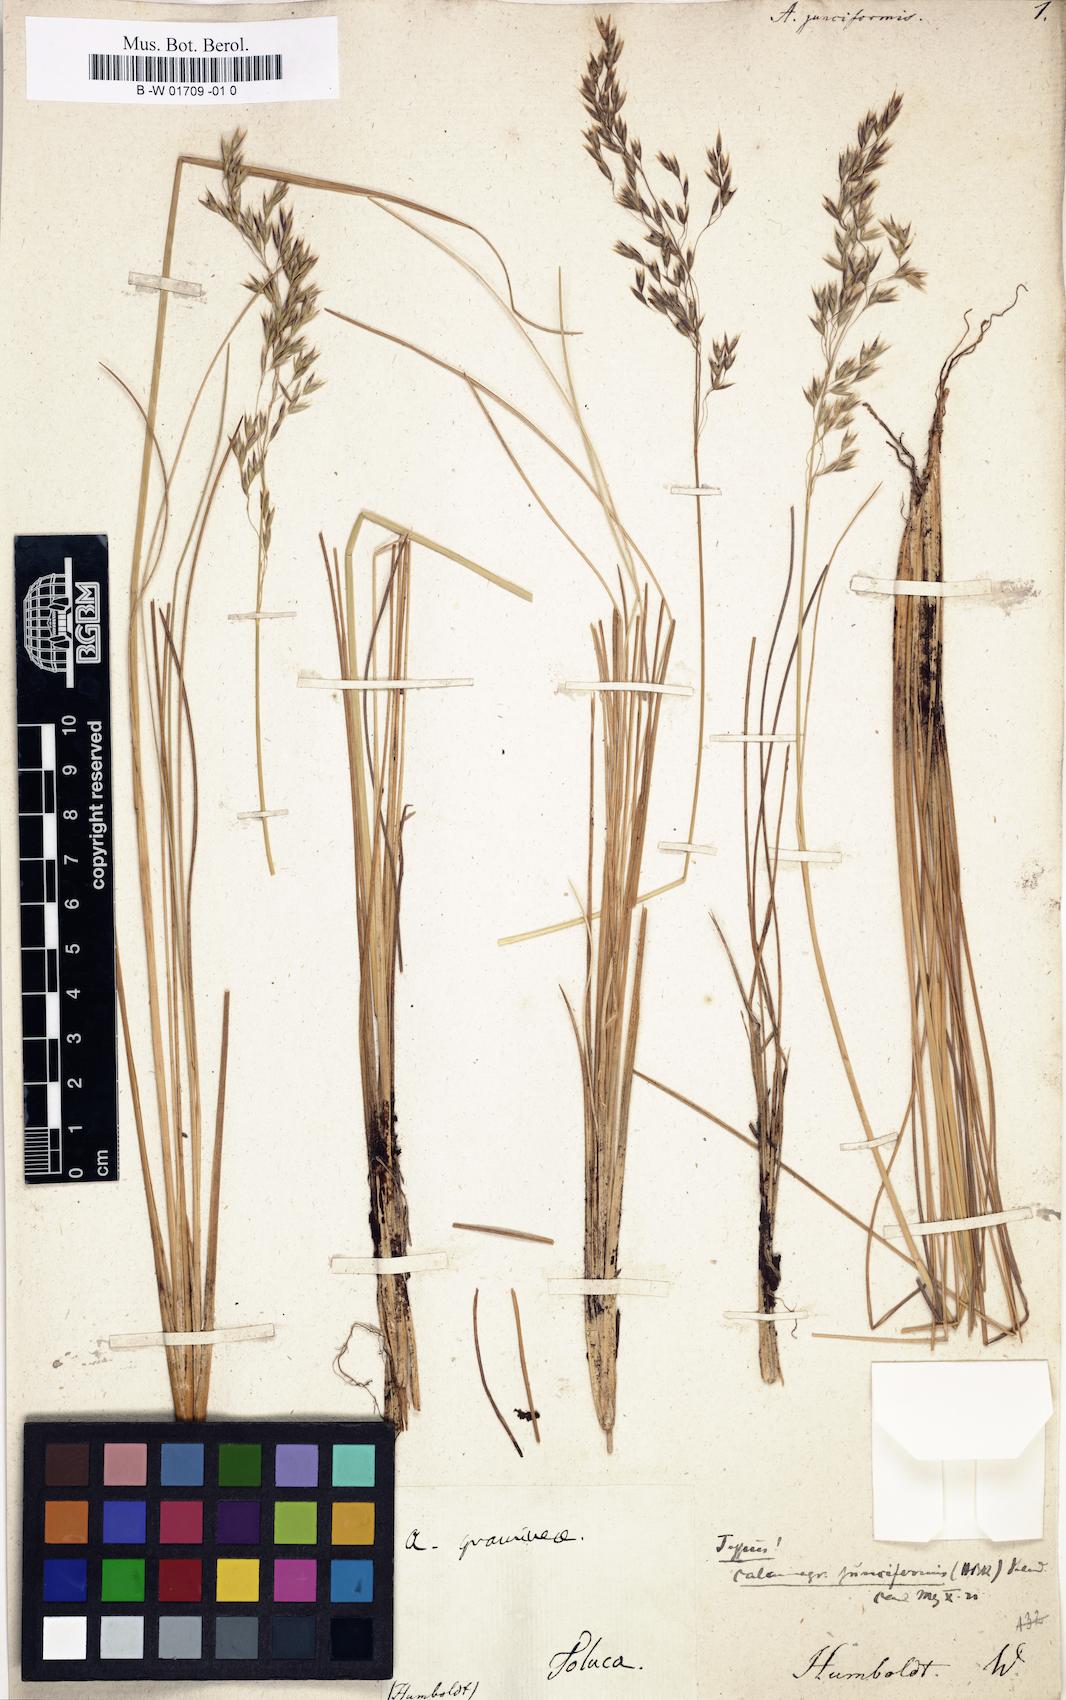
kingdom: Plantae
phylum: Tracheophyta
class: Liliopsida
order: Poales
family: Poaceae
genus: Peyritschia
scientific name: Peyritschia tolucensis
